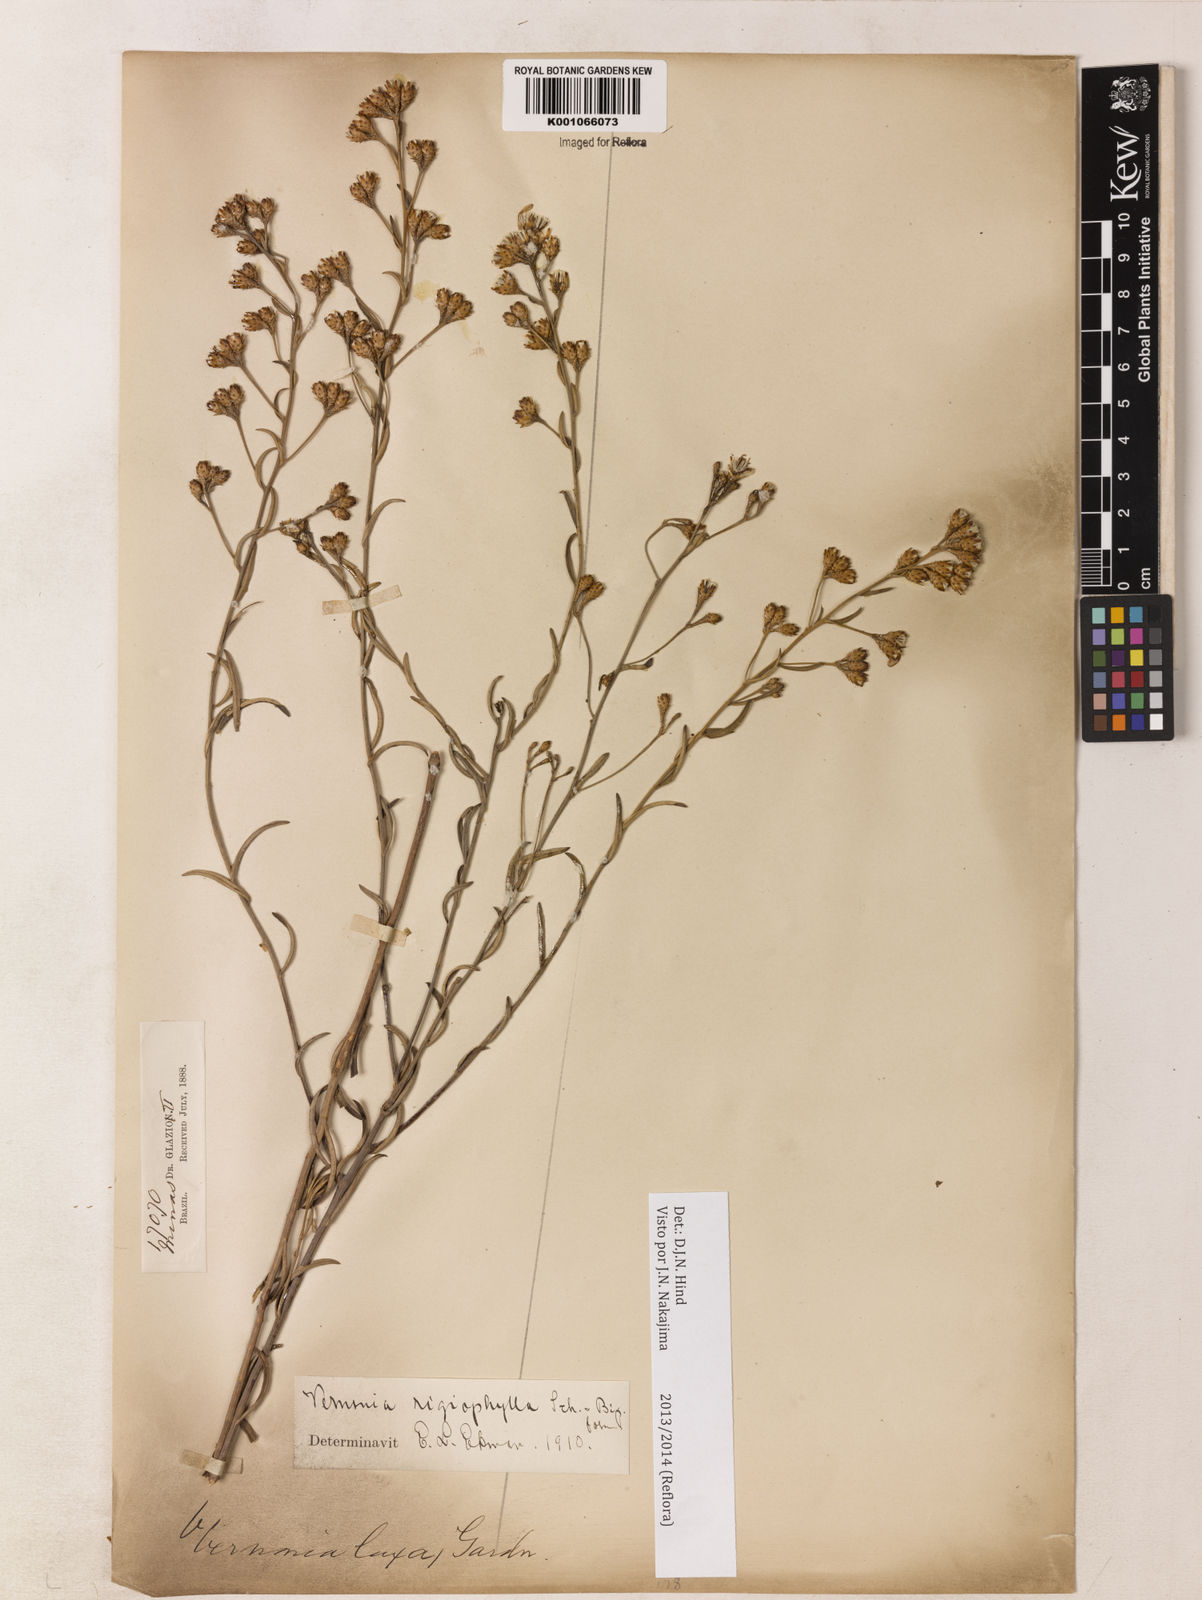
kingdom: Plantae
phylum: Tracheophyta
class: Magnoliopsida
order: Asterales
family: Asteraceae
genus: Vernonia
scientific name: Vernonia
